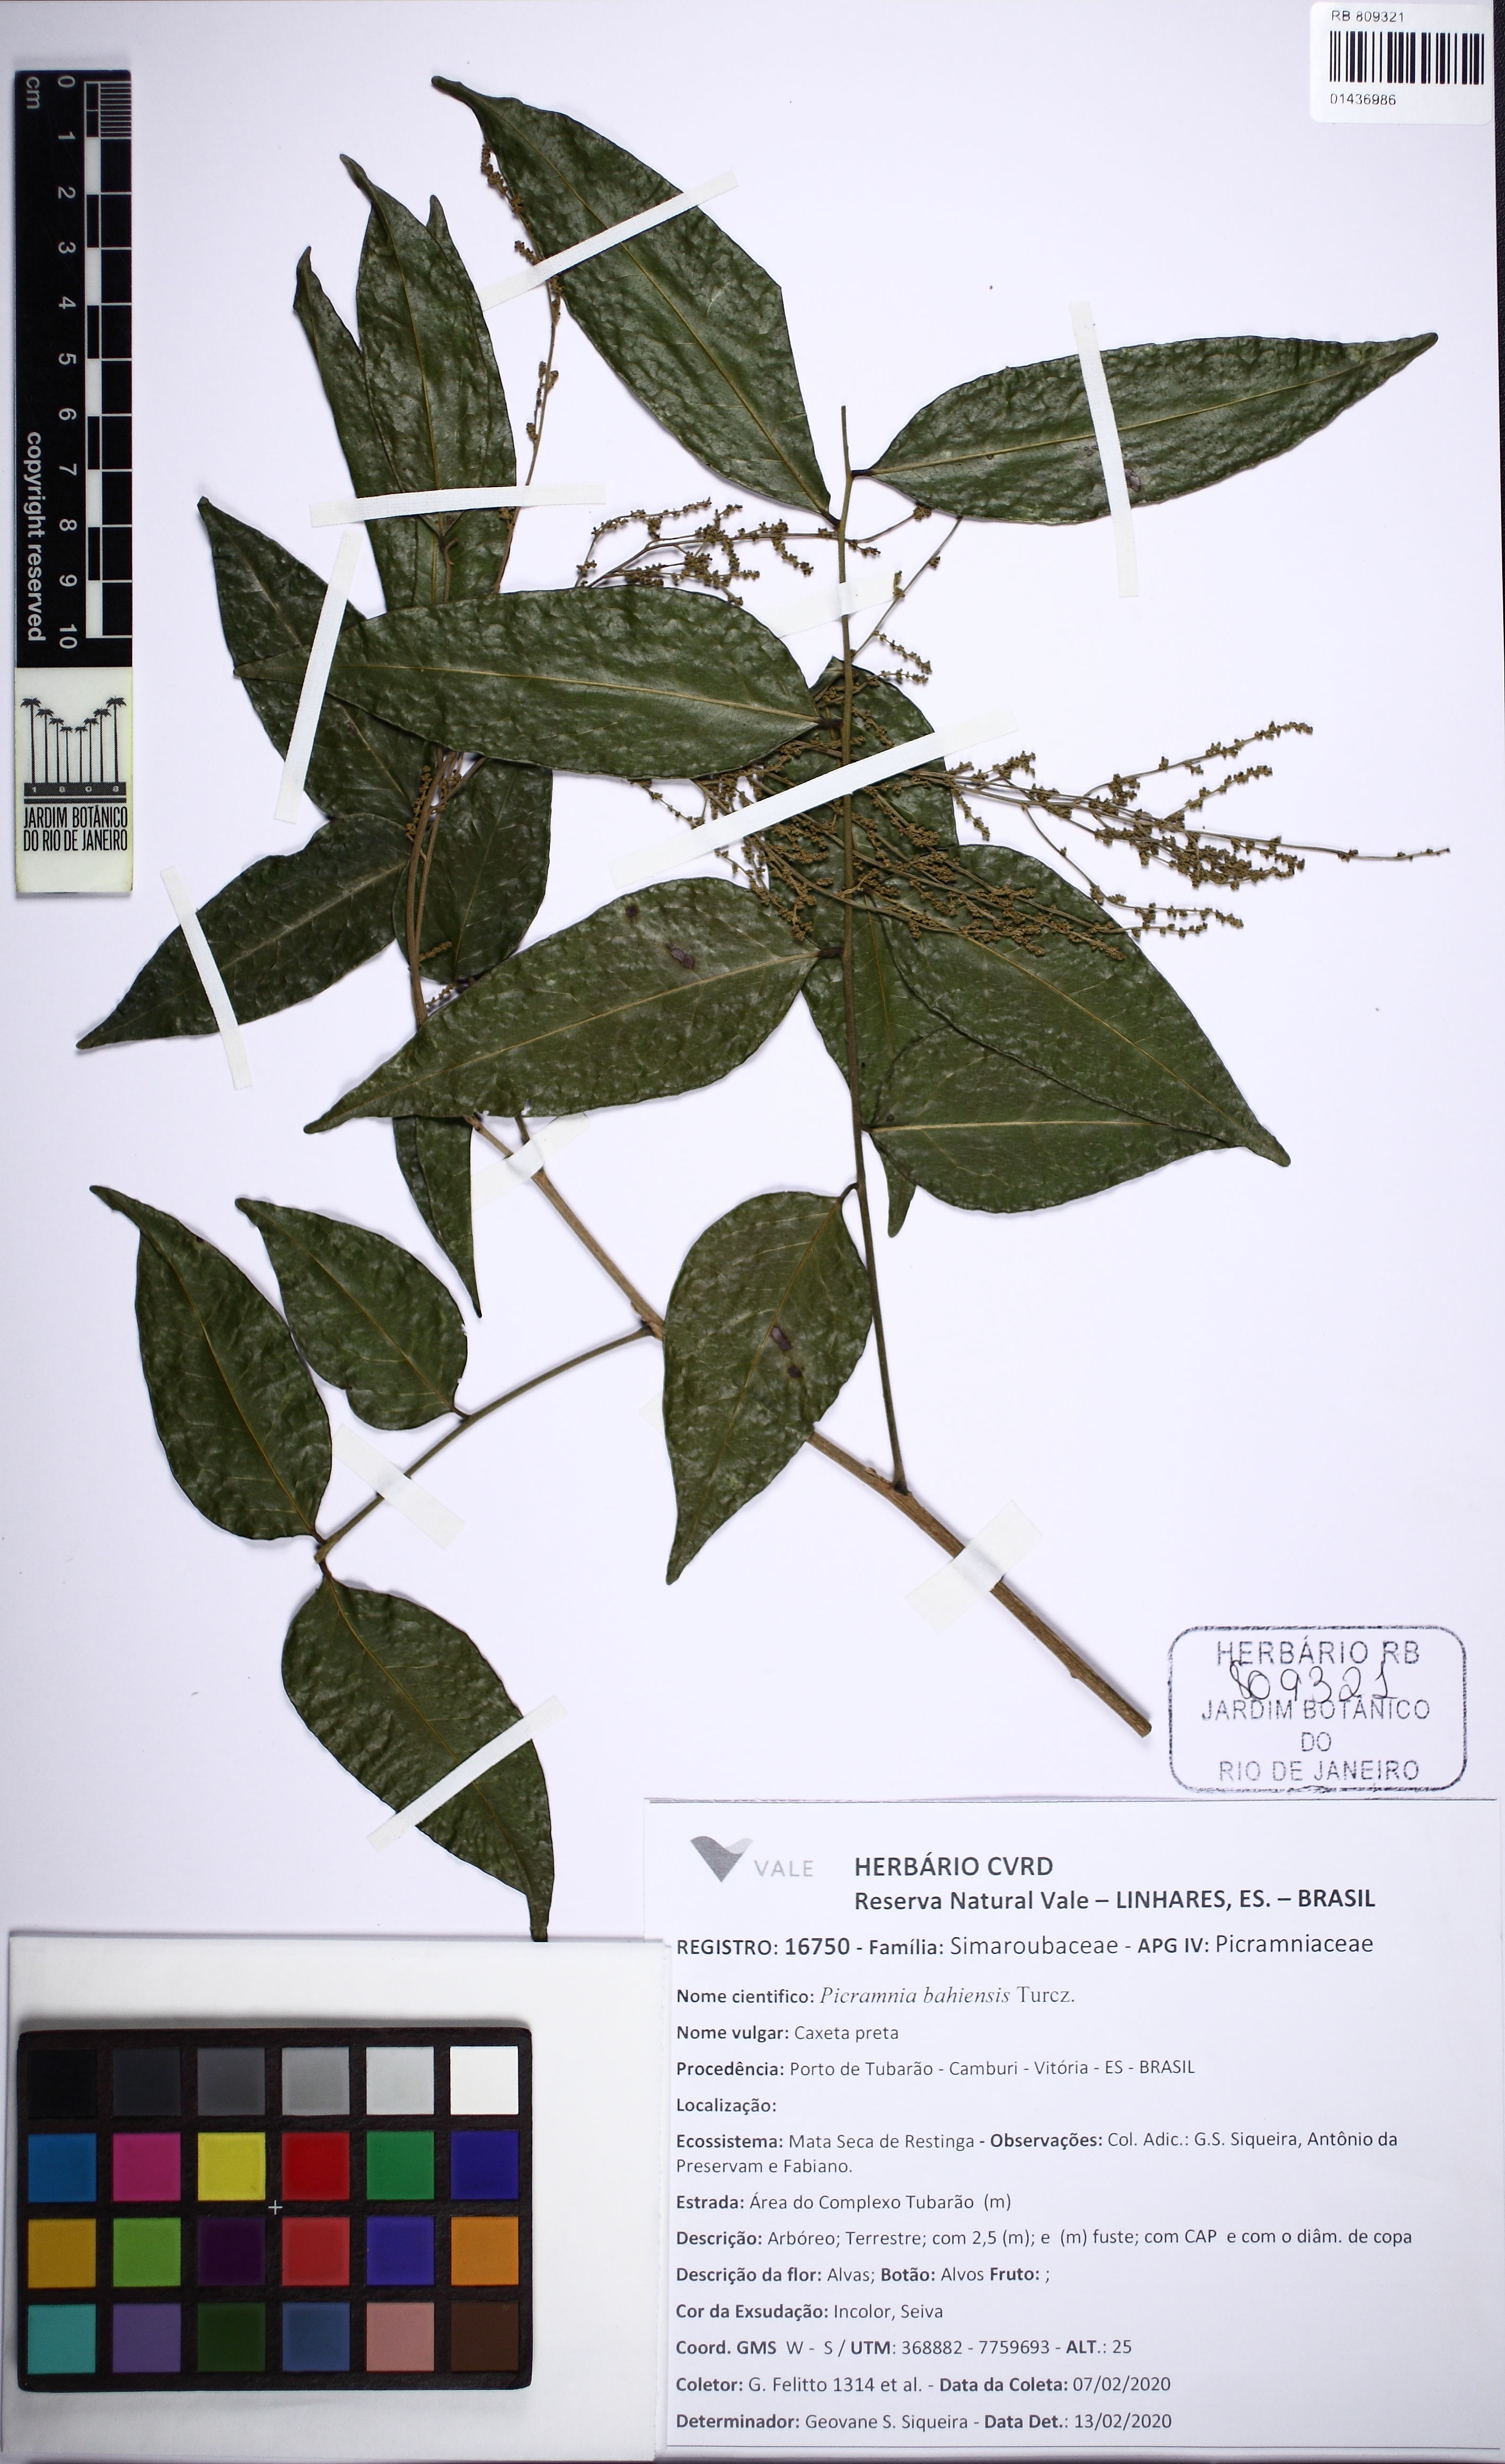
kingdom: Plantae
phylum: Tracheophyta
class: Magnoliopsida
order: Picramniales
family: Picramniaceae
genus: Picramnia
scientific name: Picramnia bahiensis
